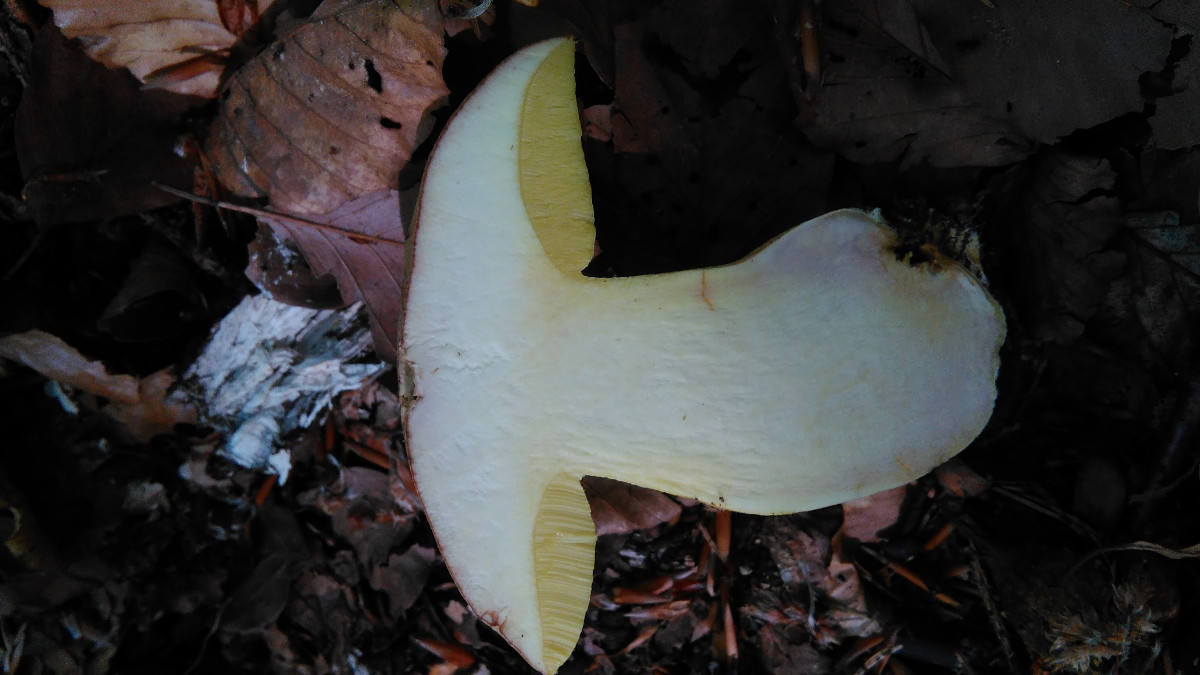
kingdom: Fungi
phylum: Basidiomycota
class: Agaricomycetes
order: Boletales
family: Boletaceae
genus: Butyriboletus
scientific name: Butyriboletus appendiculatus
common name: tenstokket rørhat
